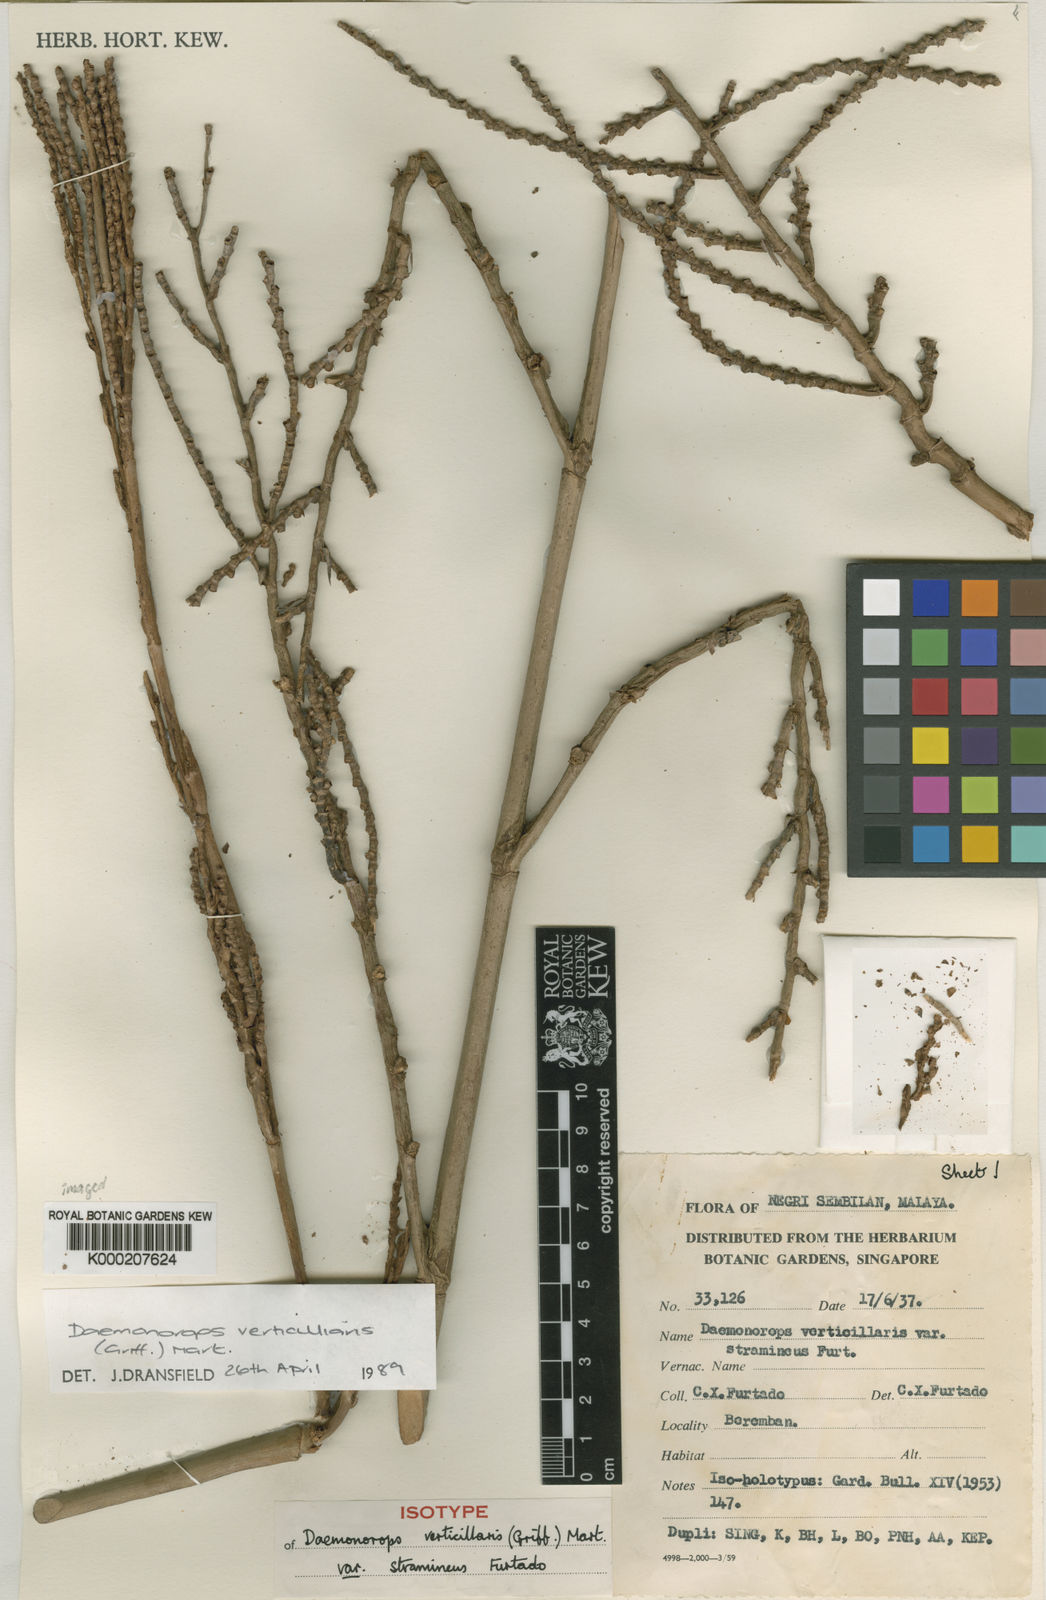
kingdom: Plantae
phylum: Tracheophyta
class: Liliopsida
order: Arecales
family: Arecaceae
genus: Calamus
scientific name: Calamus verticillaris
